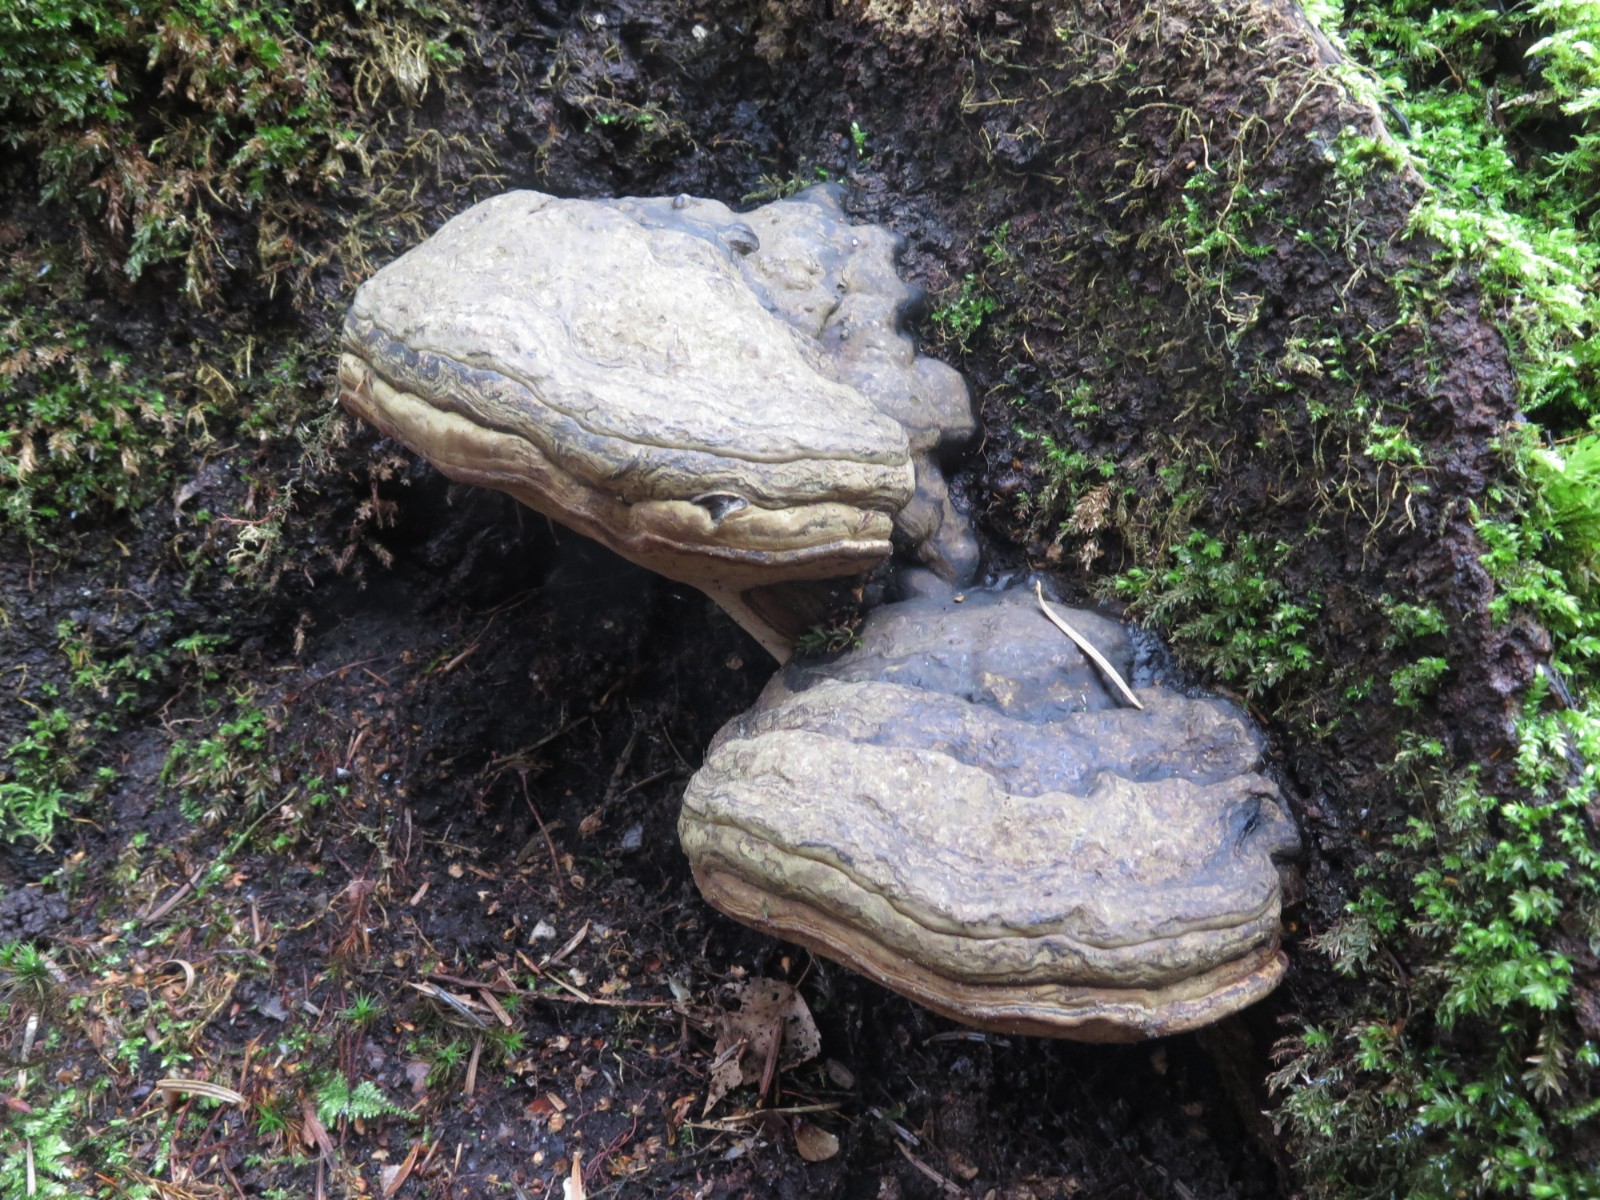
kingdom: Fungi
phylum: Basidiomycota
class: Agaricomycetes
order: Polyporales
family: Polyporaceae
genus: Ganoderma
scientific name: Ganoderma pfeifferi
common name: kobberrød lakporesvamp
